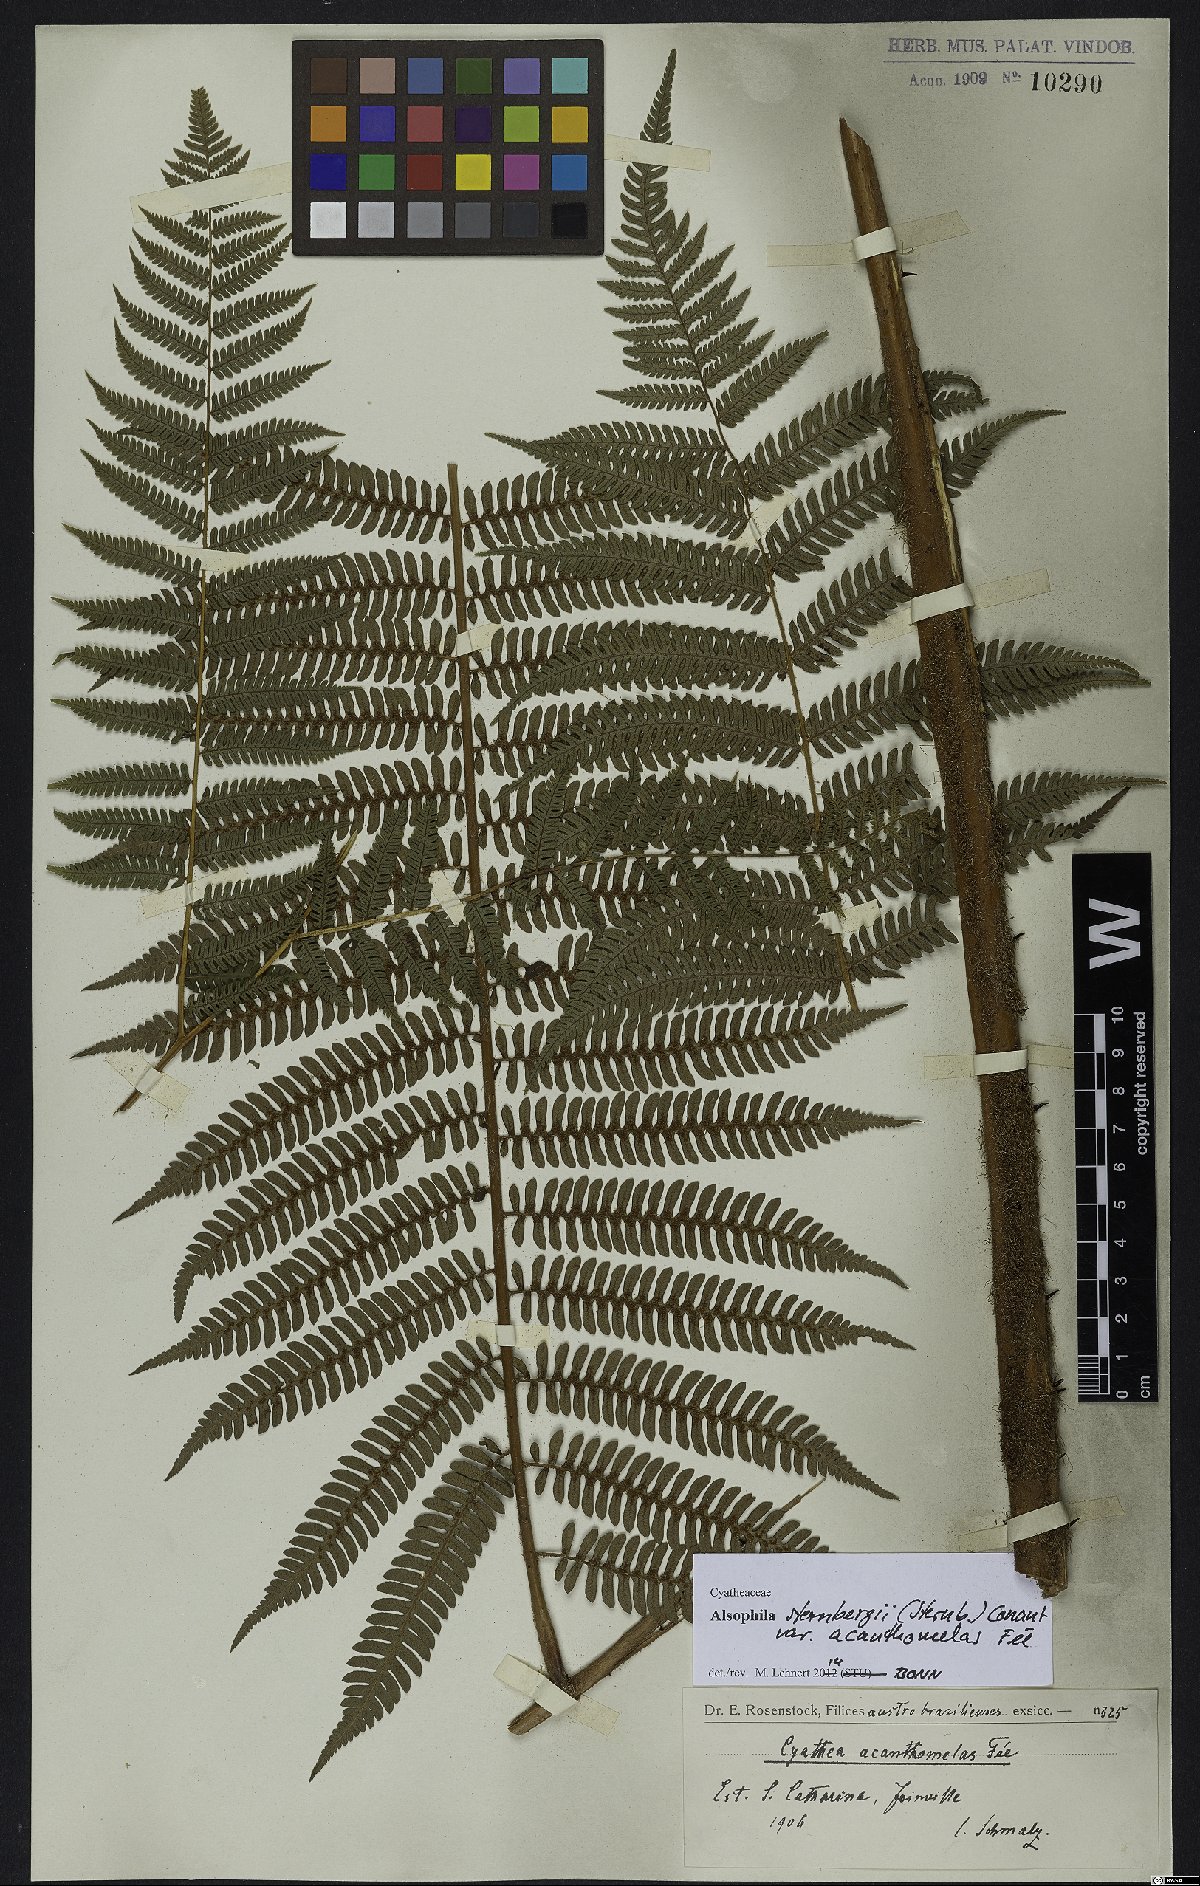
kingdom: Plantae
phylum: Tracheophyta
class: Polypodiopsida
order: Cyatheales
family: Cyatheaceae
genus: Alsophila
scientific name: Alsophila sternbergii
